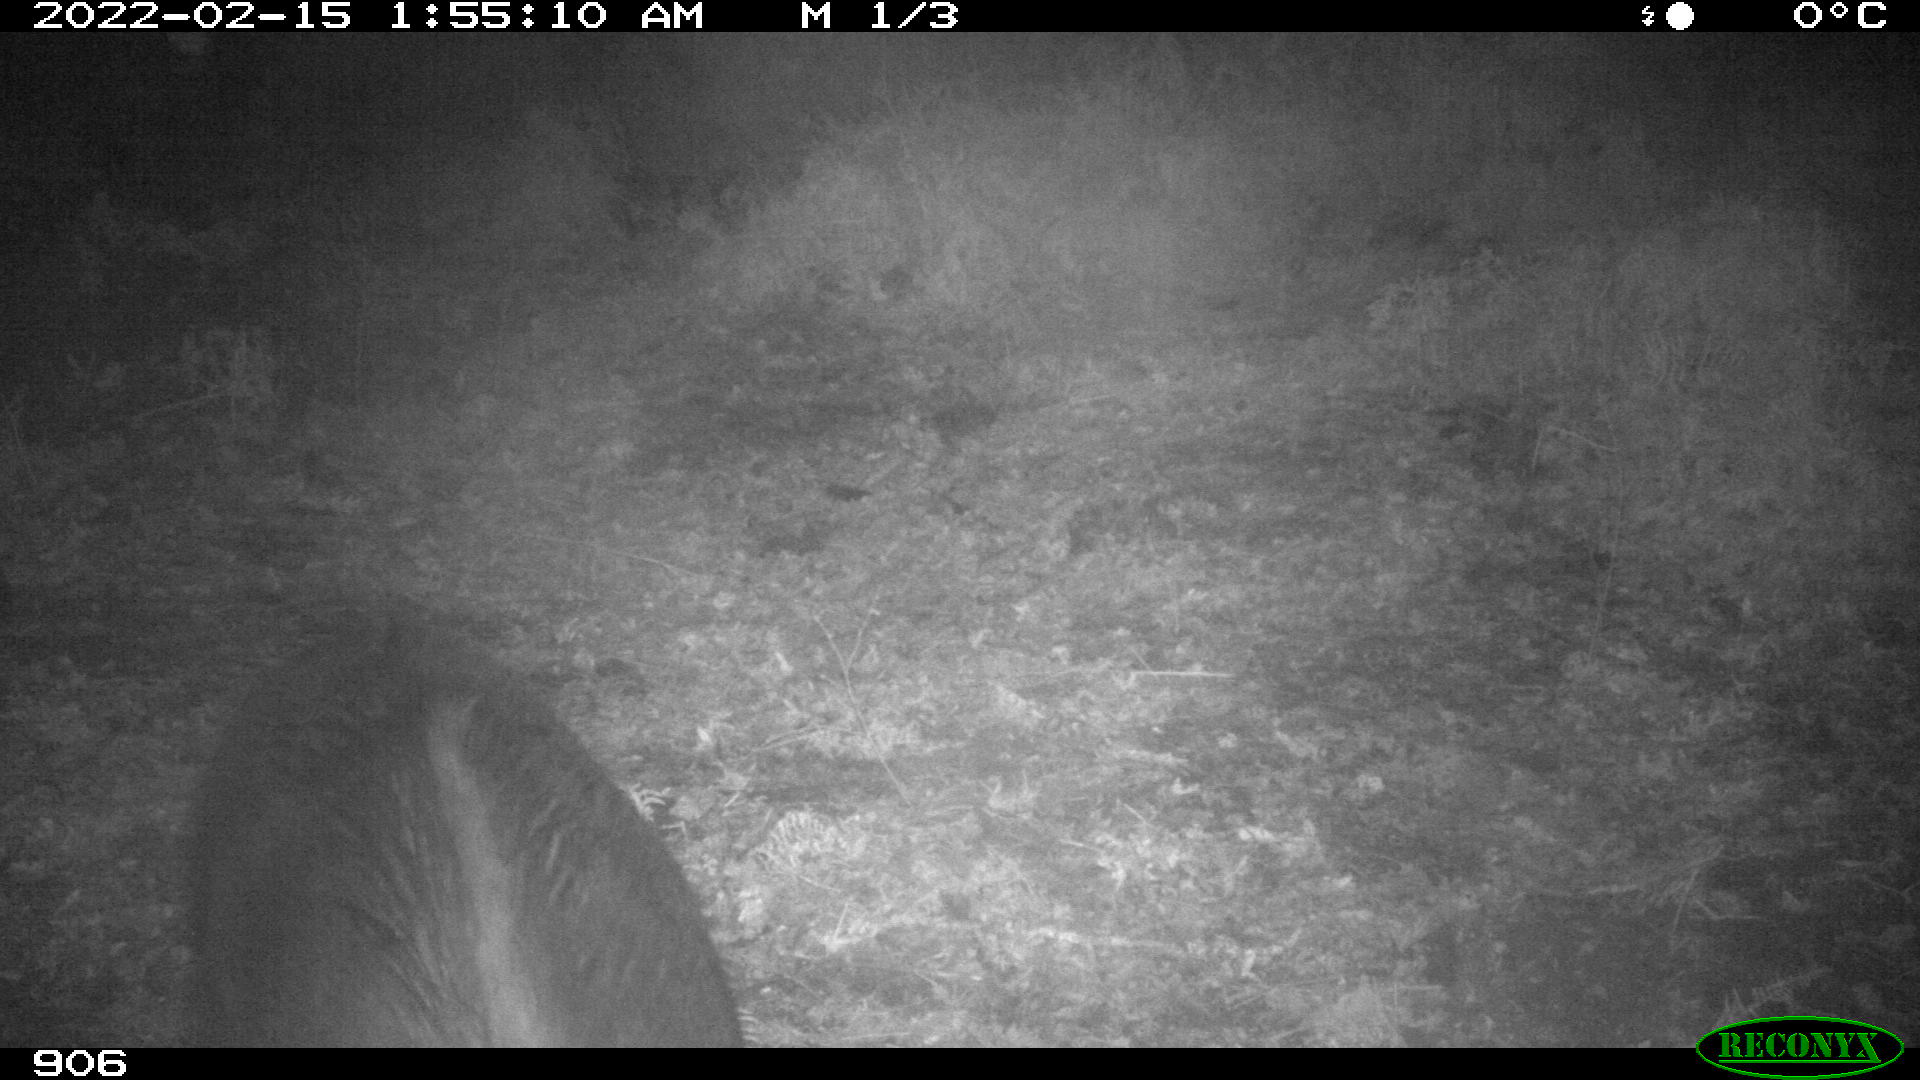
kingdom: Animalia
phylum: Chordata
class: Mammalia
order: Artiodactyla
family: Suidae
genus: Sus
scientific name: Sus scrofa
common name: Wild boar
